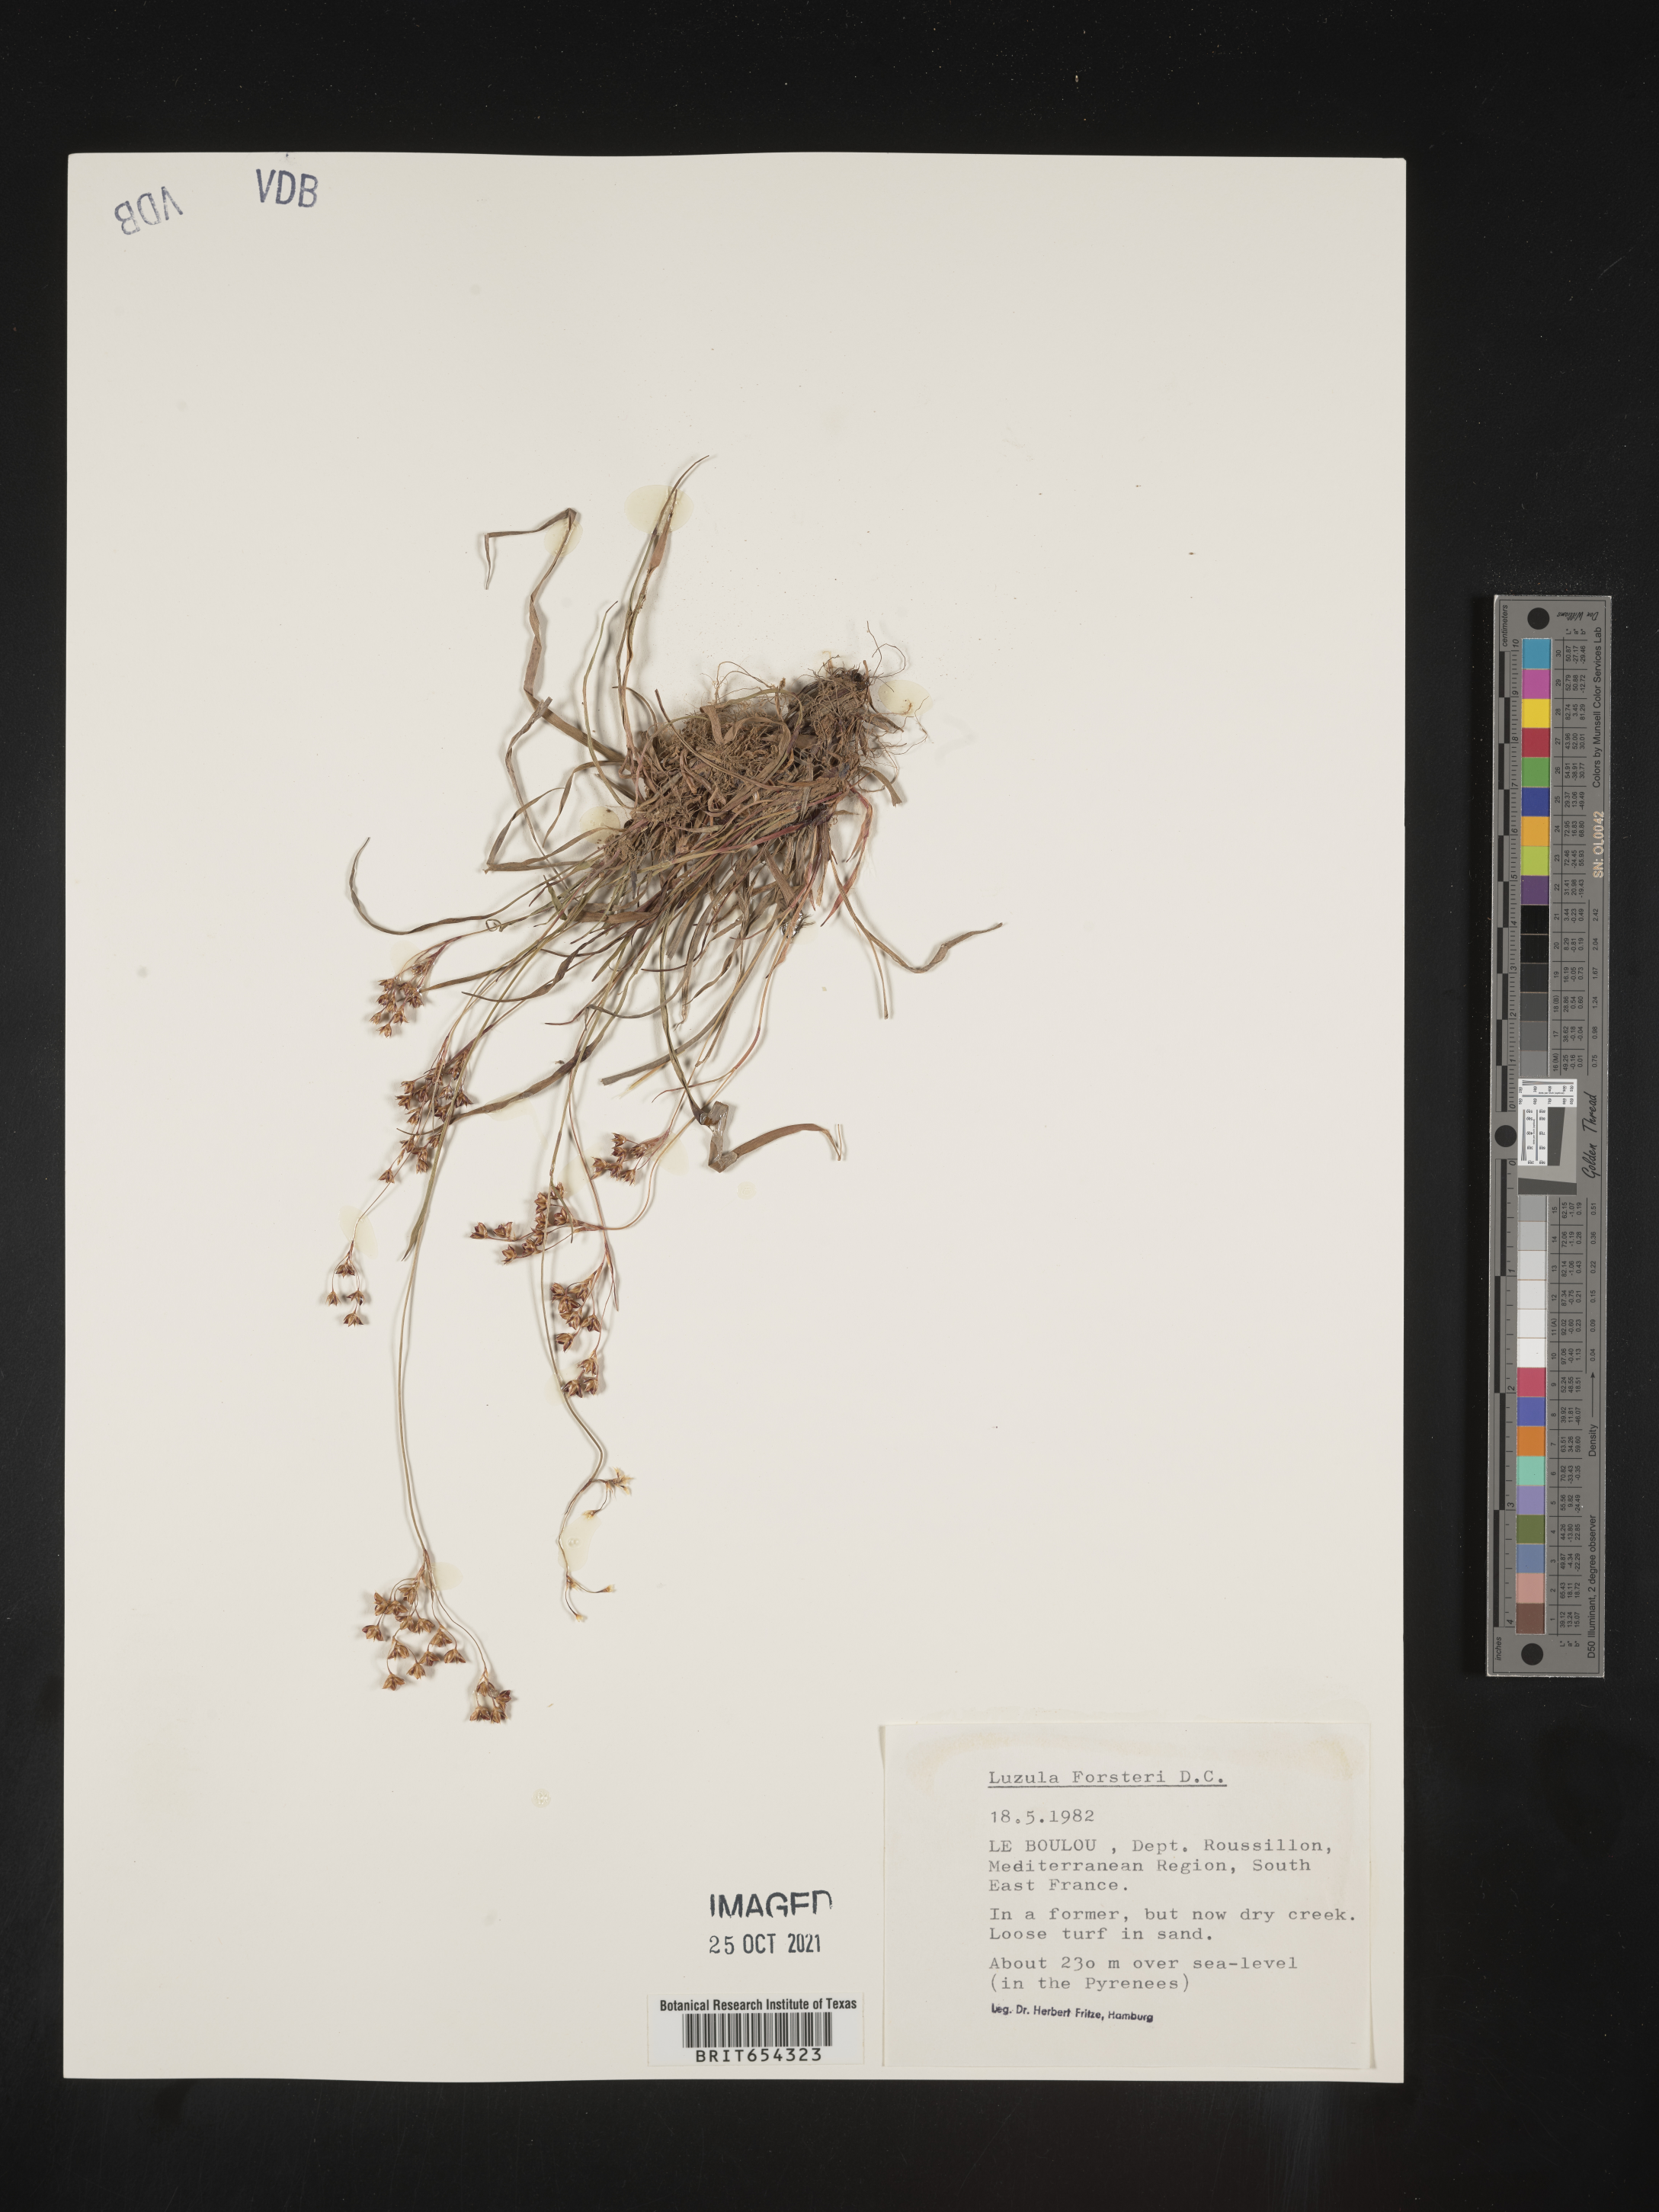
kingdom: Plantae
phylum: Tracheophyta
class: Liliopsida
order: Poales
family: Juncaceae
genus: Luzula
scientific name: Luzula
